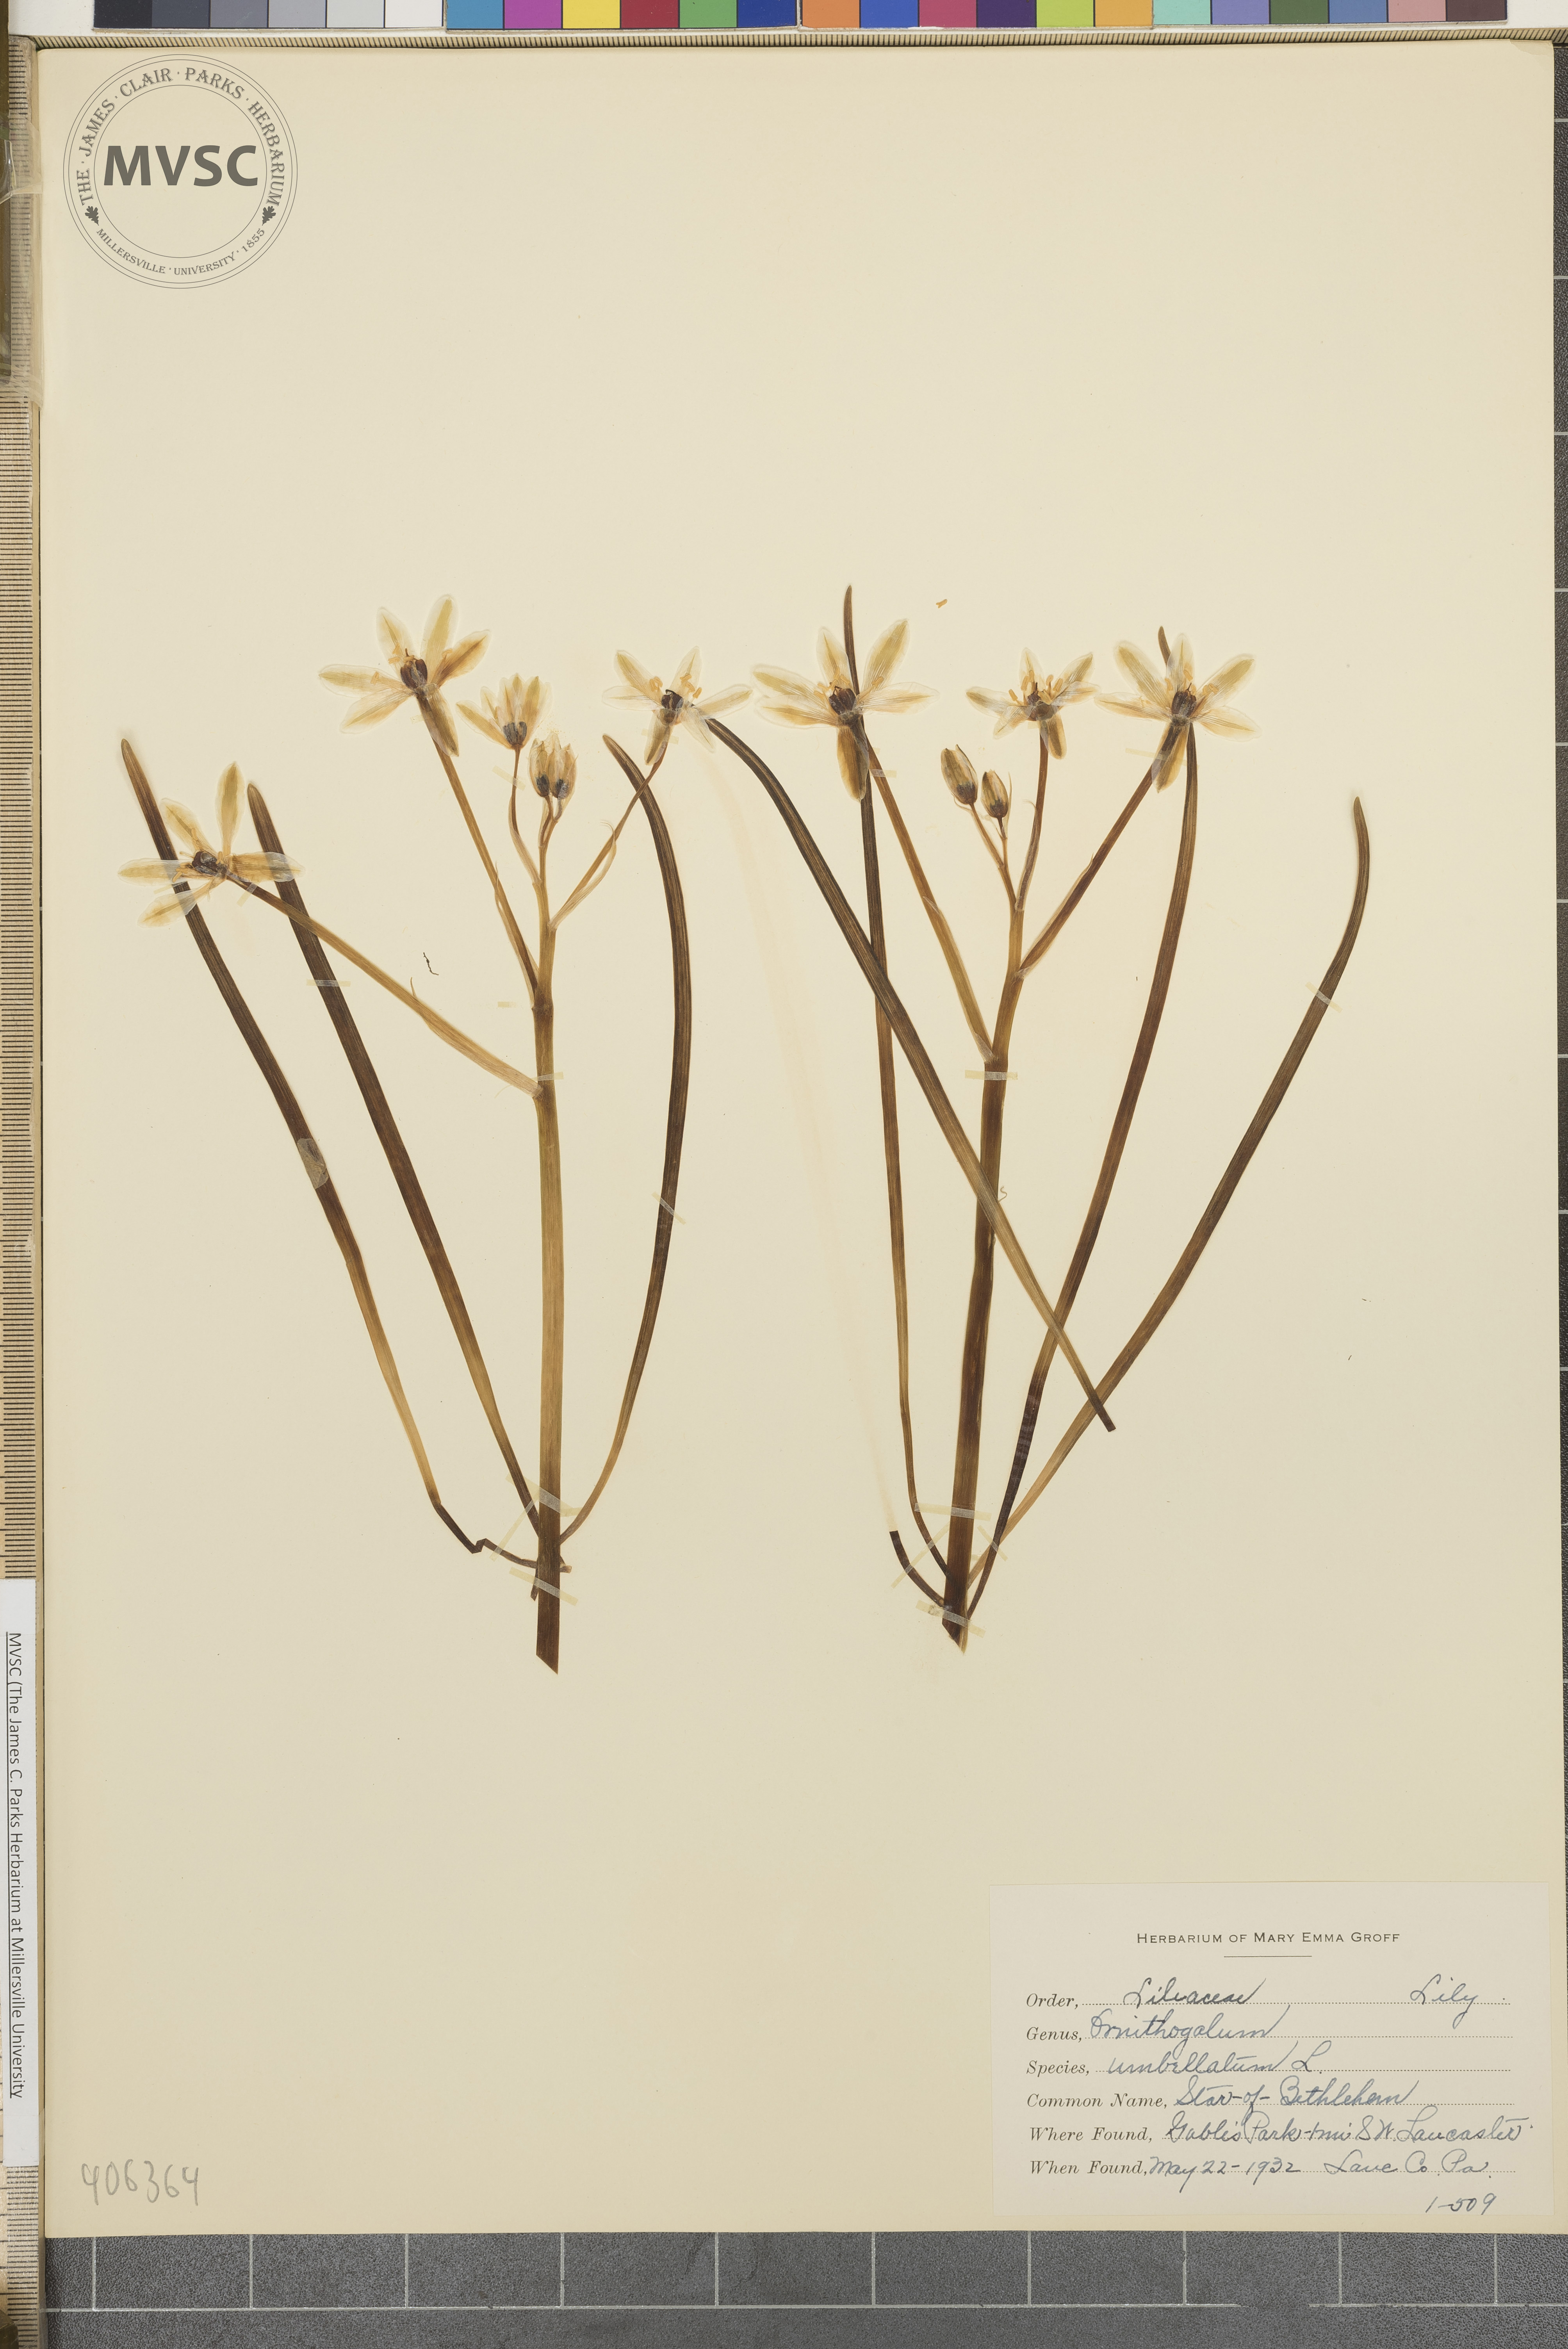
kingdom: Plantae
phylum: Tracheophyta
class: Liliopsida
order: Asparagales
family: Asparagaceae
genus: Ornithogalum
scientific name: Ornithogalum umbellatum
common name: star-of-Bethlehem
